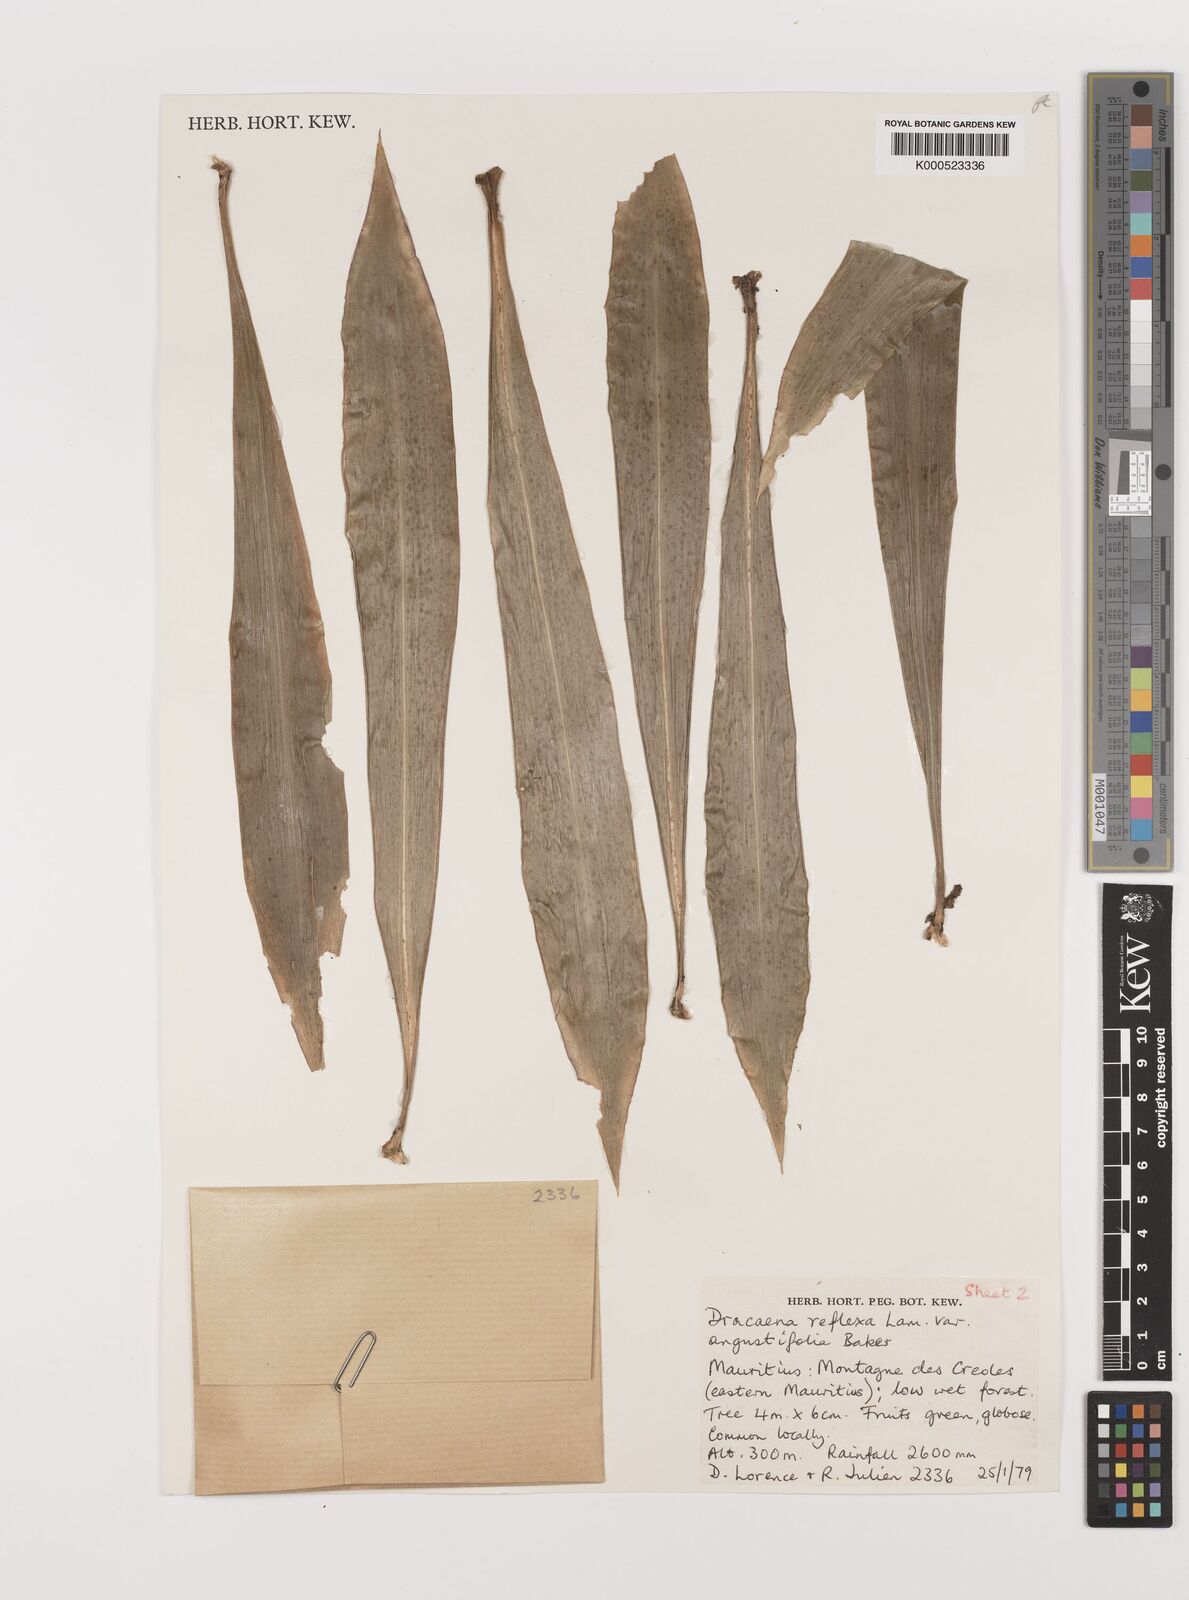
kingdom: Plantae
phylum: Tracheophyta
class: Liliopsida
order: Asparagales
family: Asparagaceae
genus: Dracaena
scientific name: Dracaena reflexa
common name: Song-of-india
